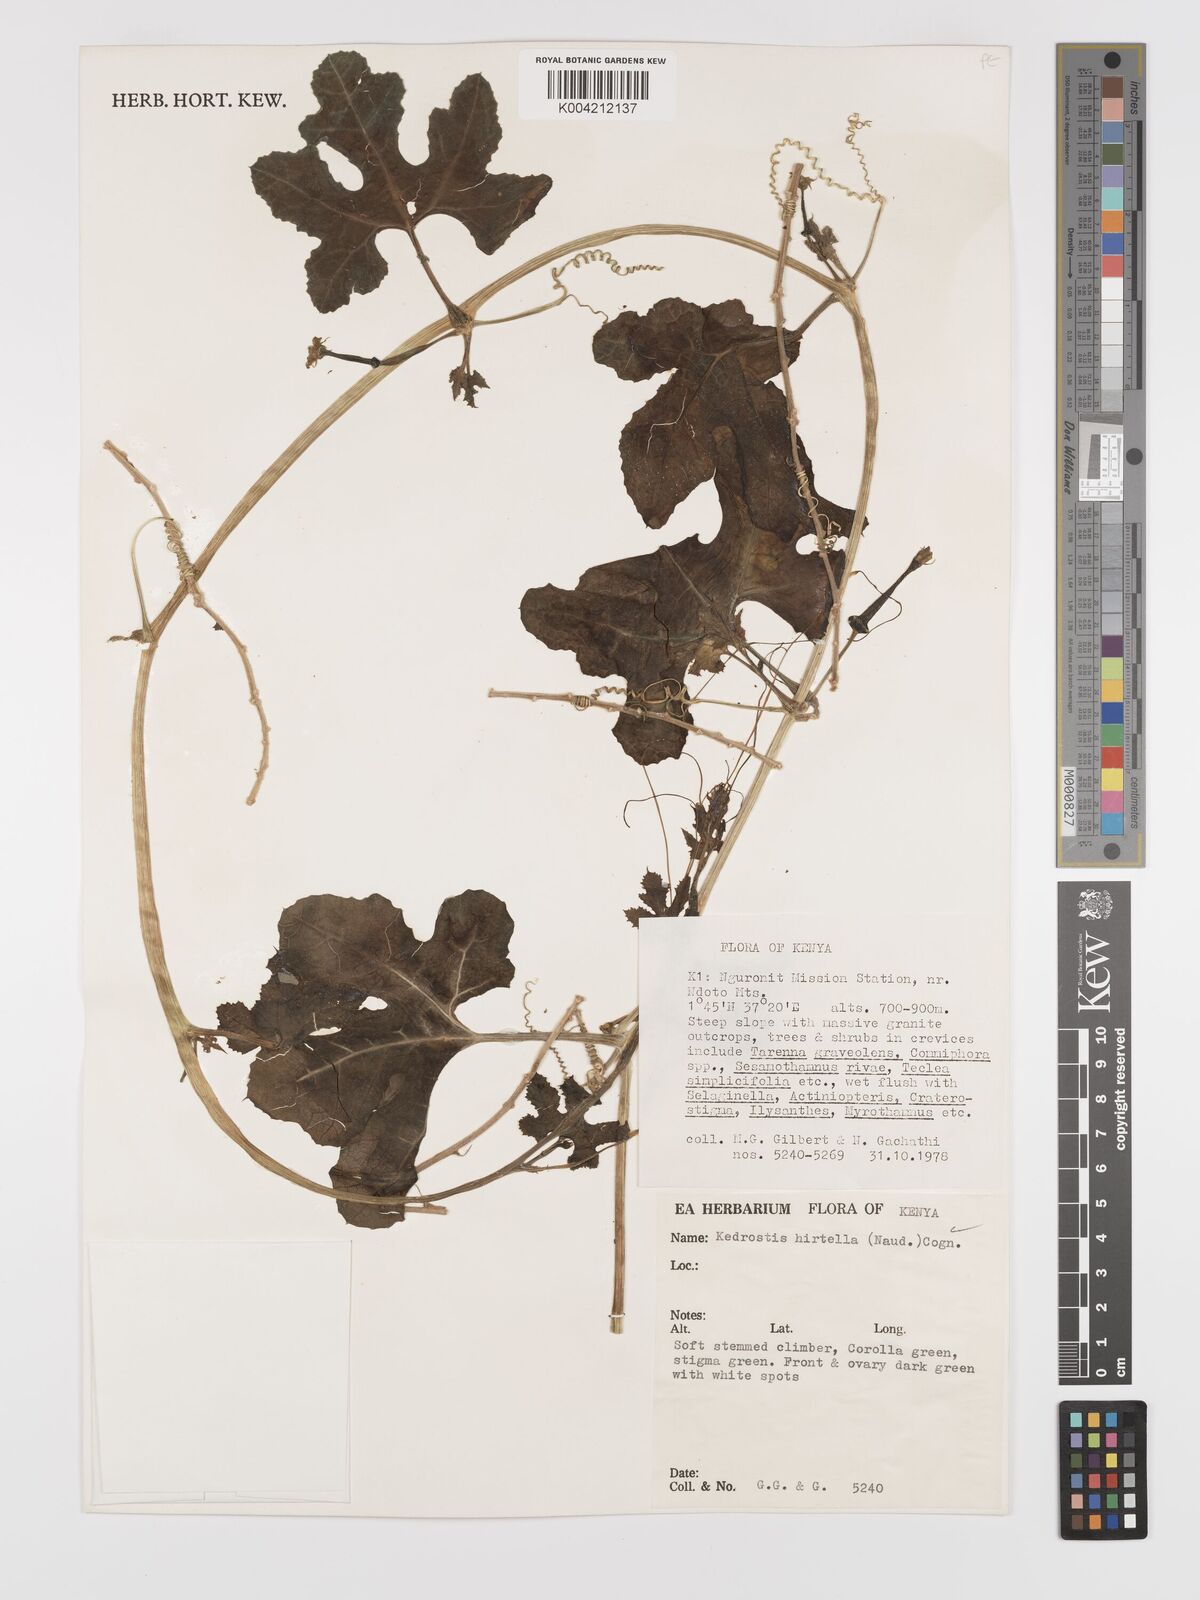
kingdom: Plantae
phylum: Tracheophyta
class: Magnoliopsida
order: Cucurbitales
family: Cucurbitaceae
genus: Kedrostis
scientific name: Kedrostis leloja
